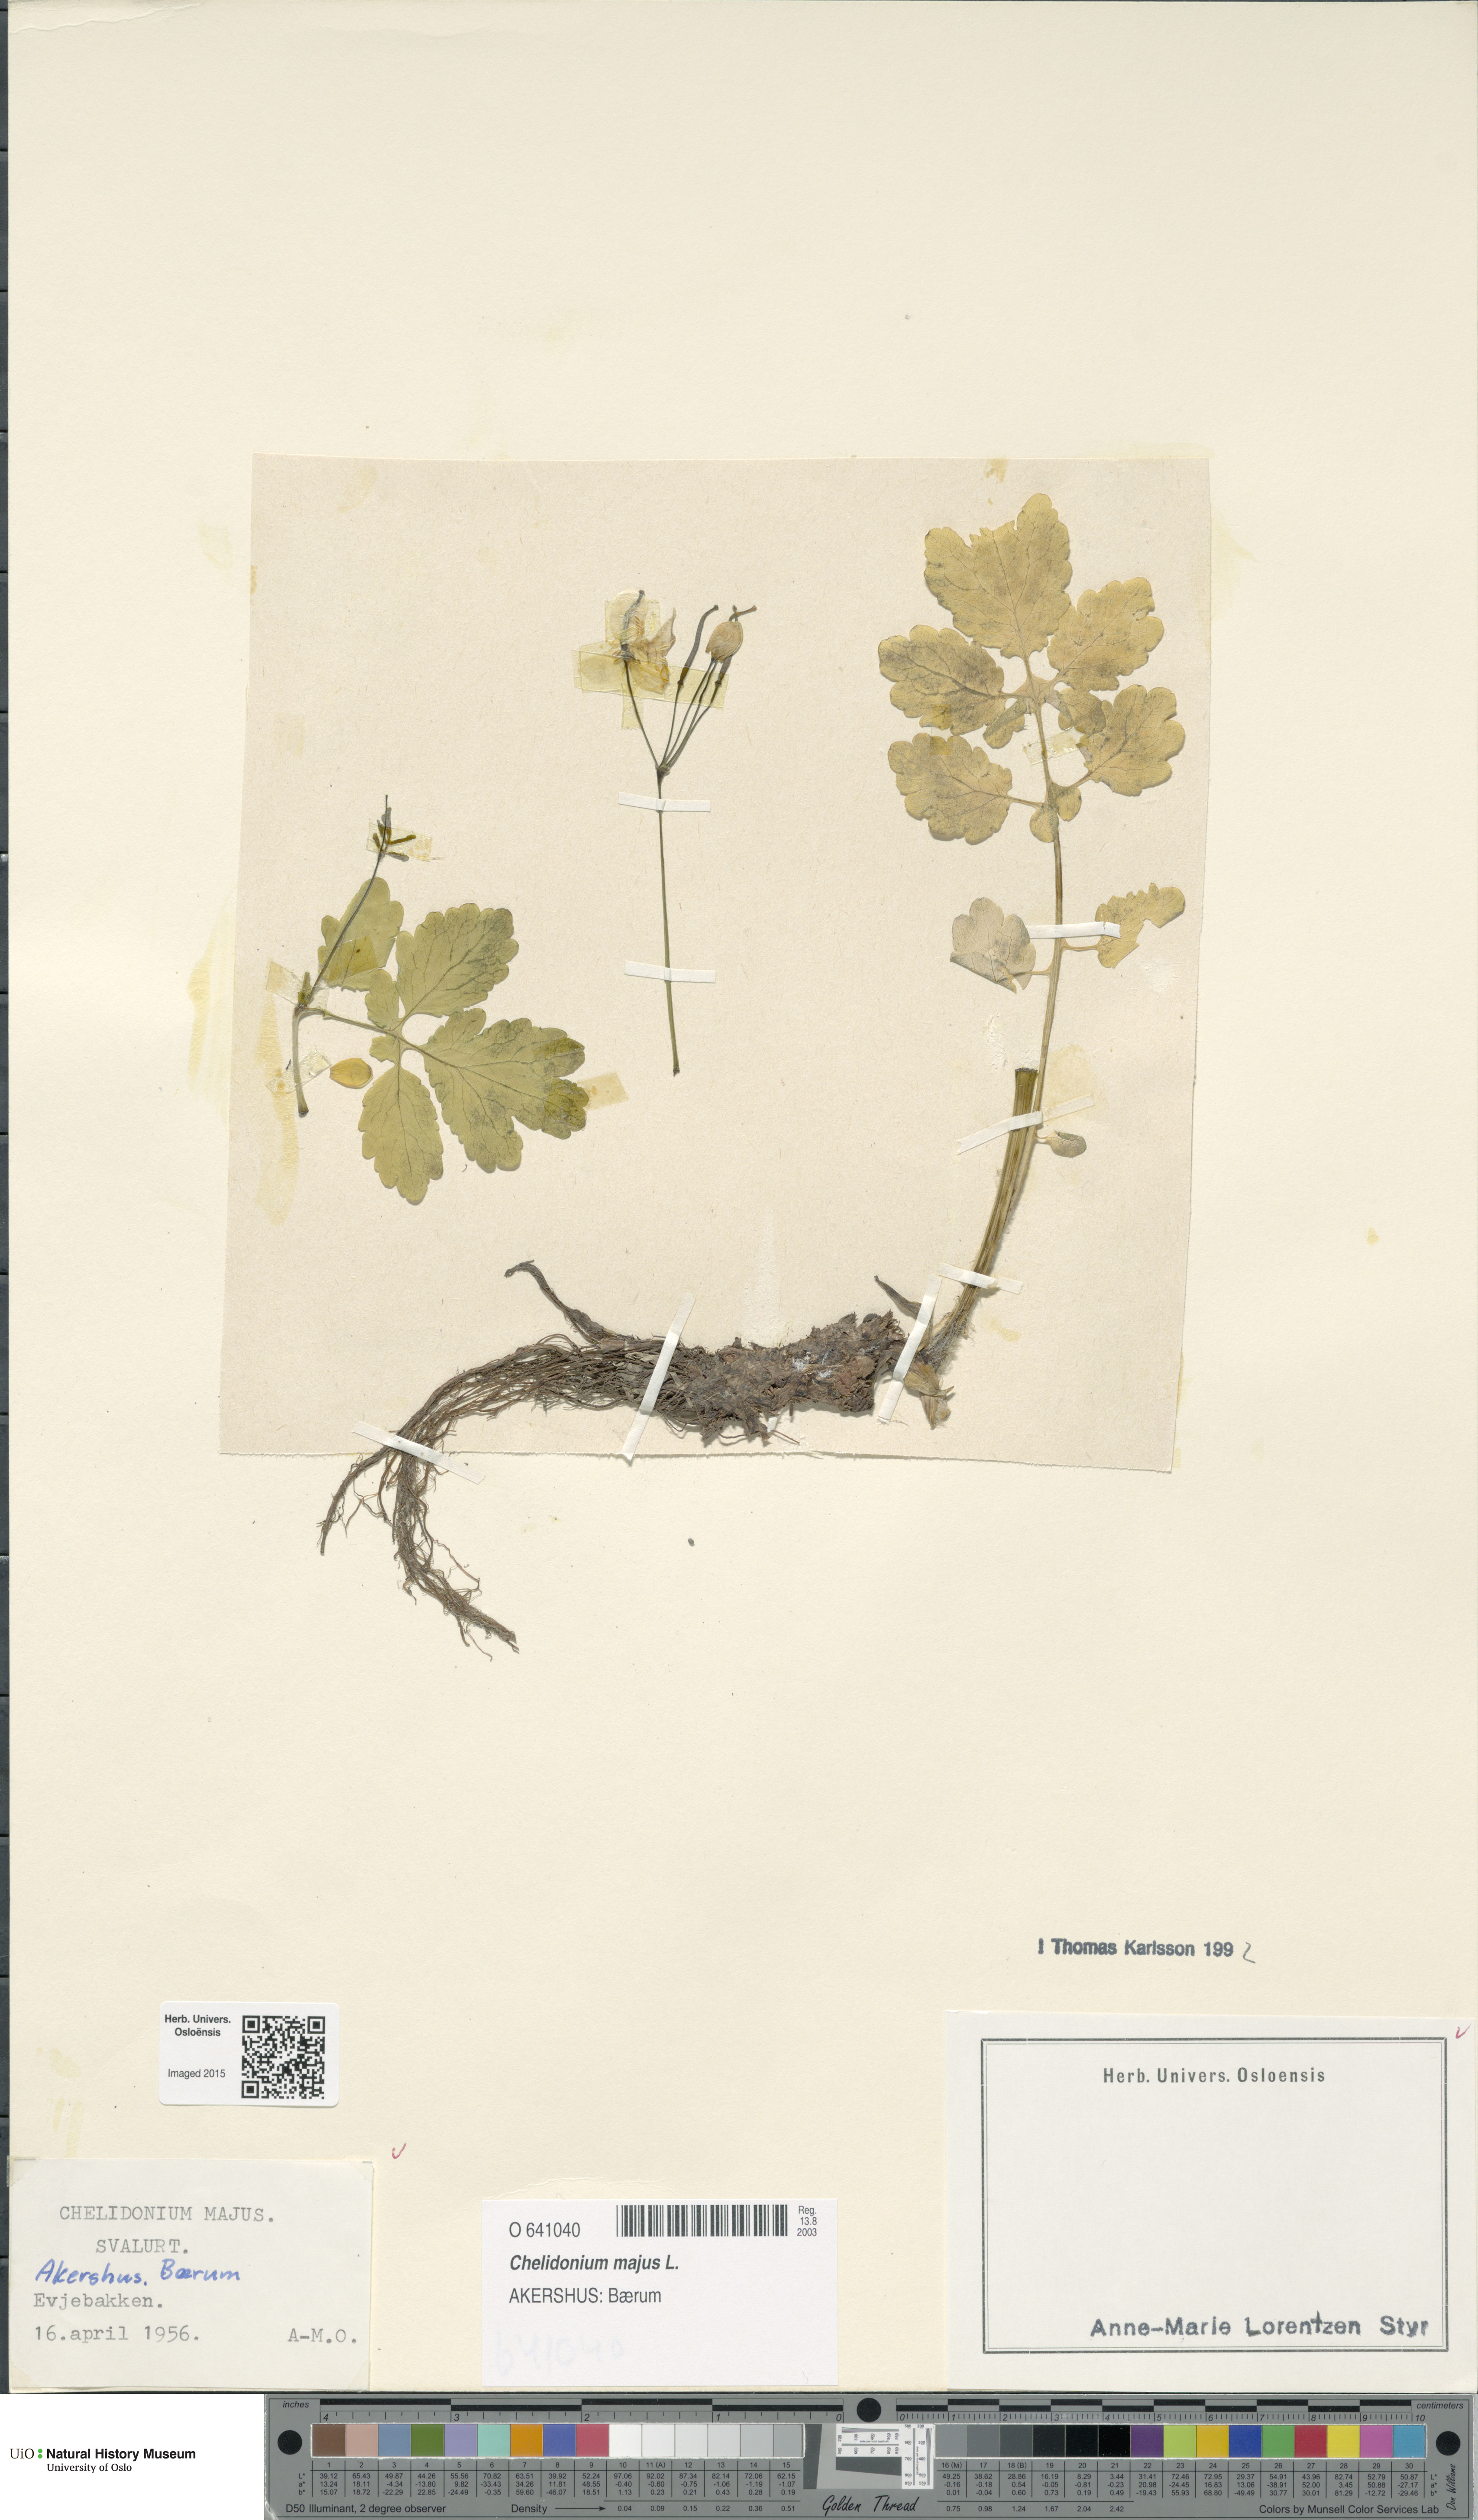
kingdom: Plantae
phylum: Tracheophyta
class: Magnoliopsida
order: Ranunculales
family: Papaveraceae
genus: Chelidonium
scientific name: Chelidonium majus
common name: Greater celandine
